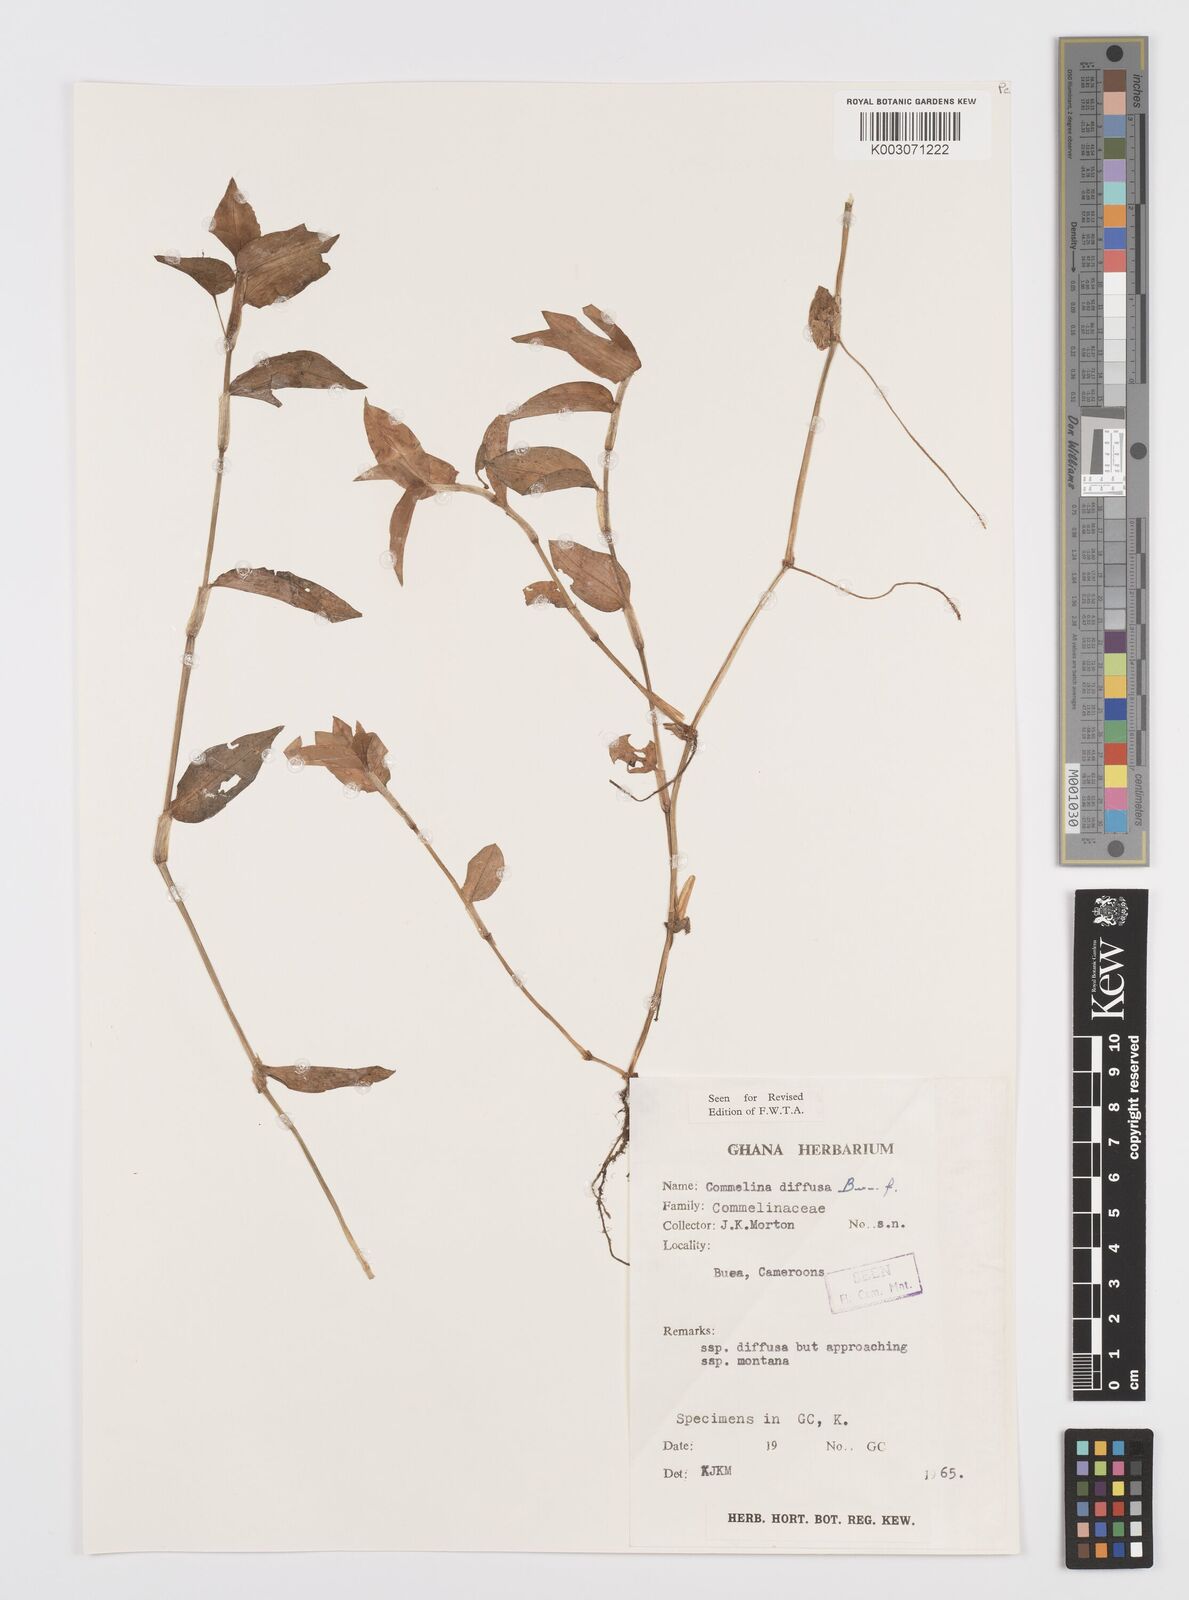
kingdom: Plantae
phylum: Tracheophyta
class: Liliopsida
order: Commelinales
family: Commelinaceae
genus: Commelina
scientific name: Commelina diffusa
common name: Climbing dayflower
